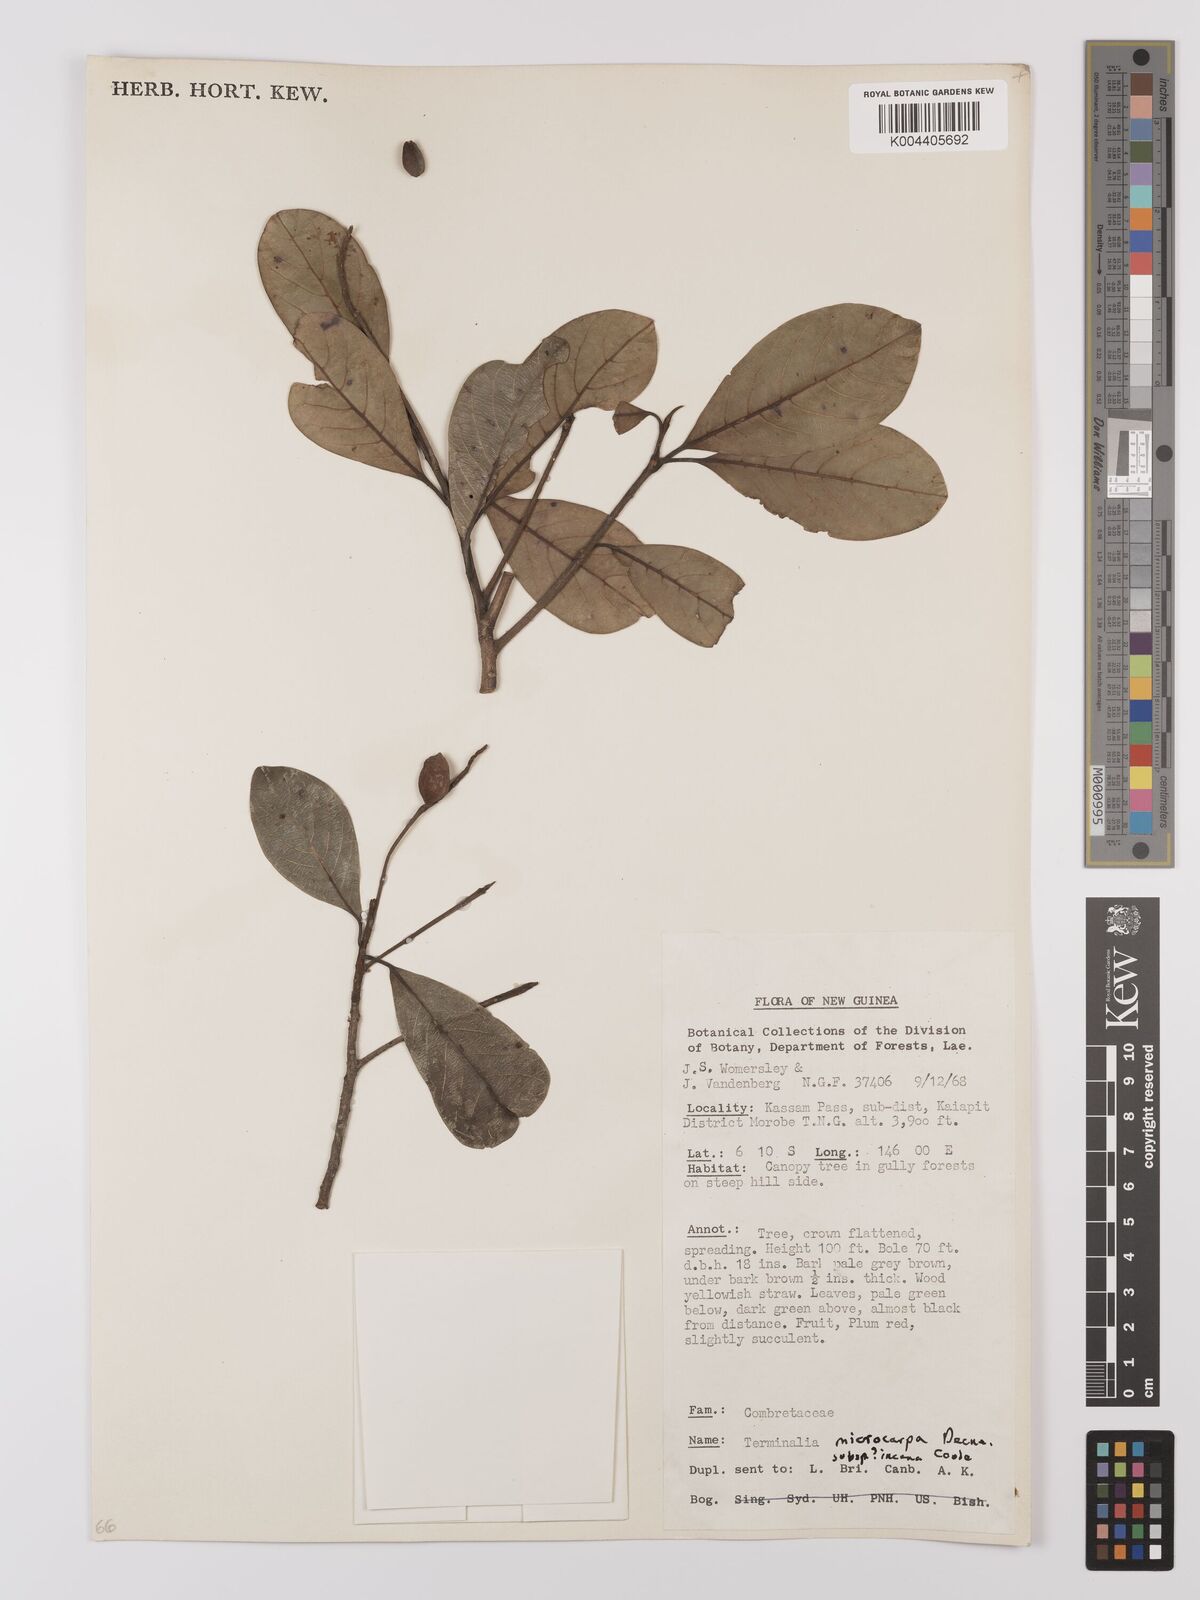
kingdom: Plantae
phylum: Tracheophyta
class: Magnoliopsida
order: Myrtales
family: Combretaceae
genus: Terminalia
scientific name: Terminalia microcarpa
